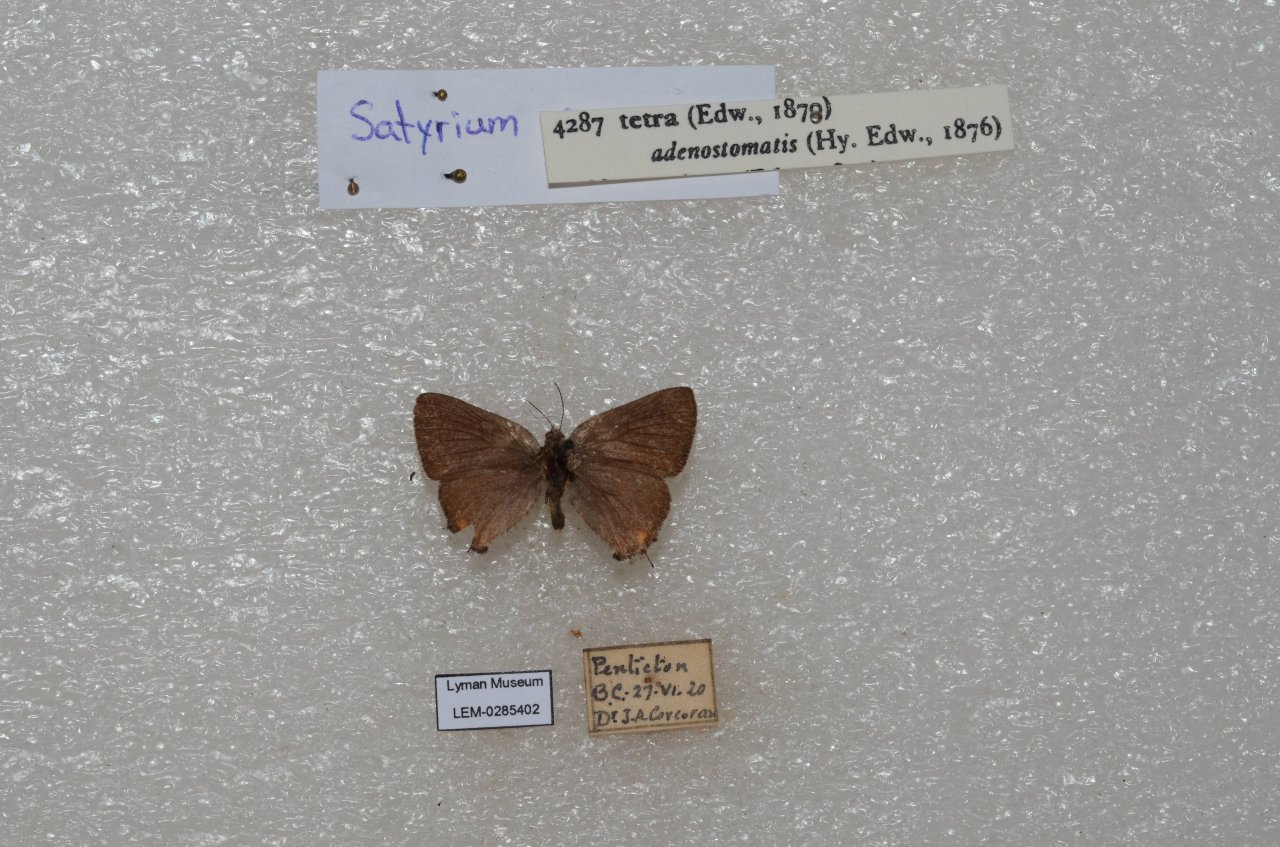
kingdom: Animalia
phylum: Arthropoda
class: Insecta
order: Lepidoptera
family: Lycaenidae
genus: Satyrium
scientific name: Satyrium
